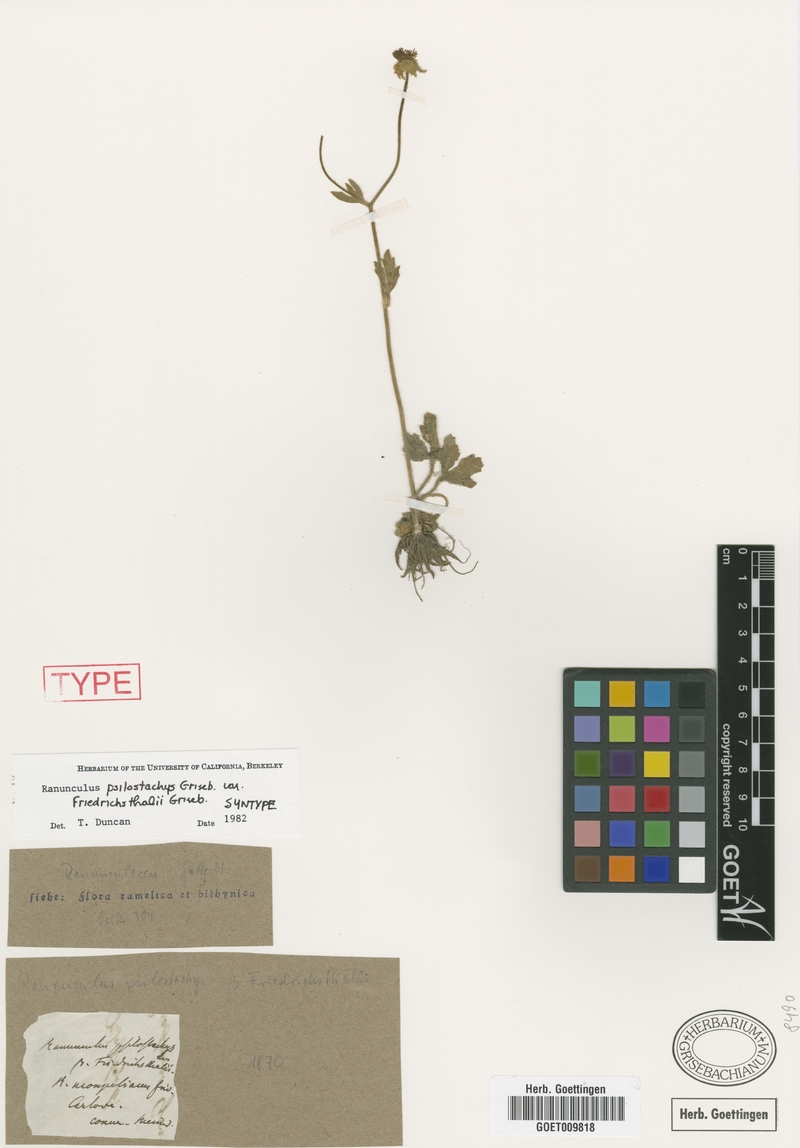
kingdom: Plantae
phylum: Tracheophyta
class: Magnoliopsida
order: Ranunculales
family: Ranunculaceae
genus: Ranunculus
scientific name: Ranunculus psilostachys
